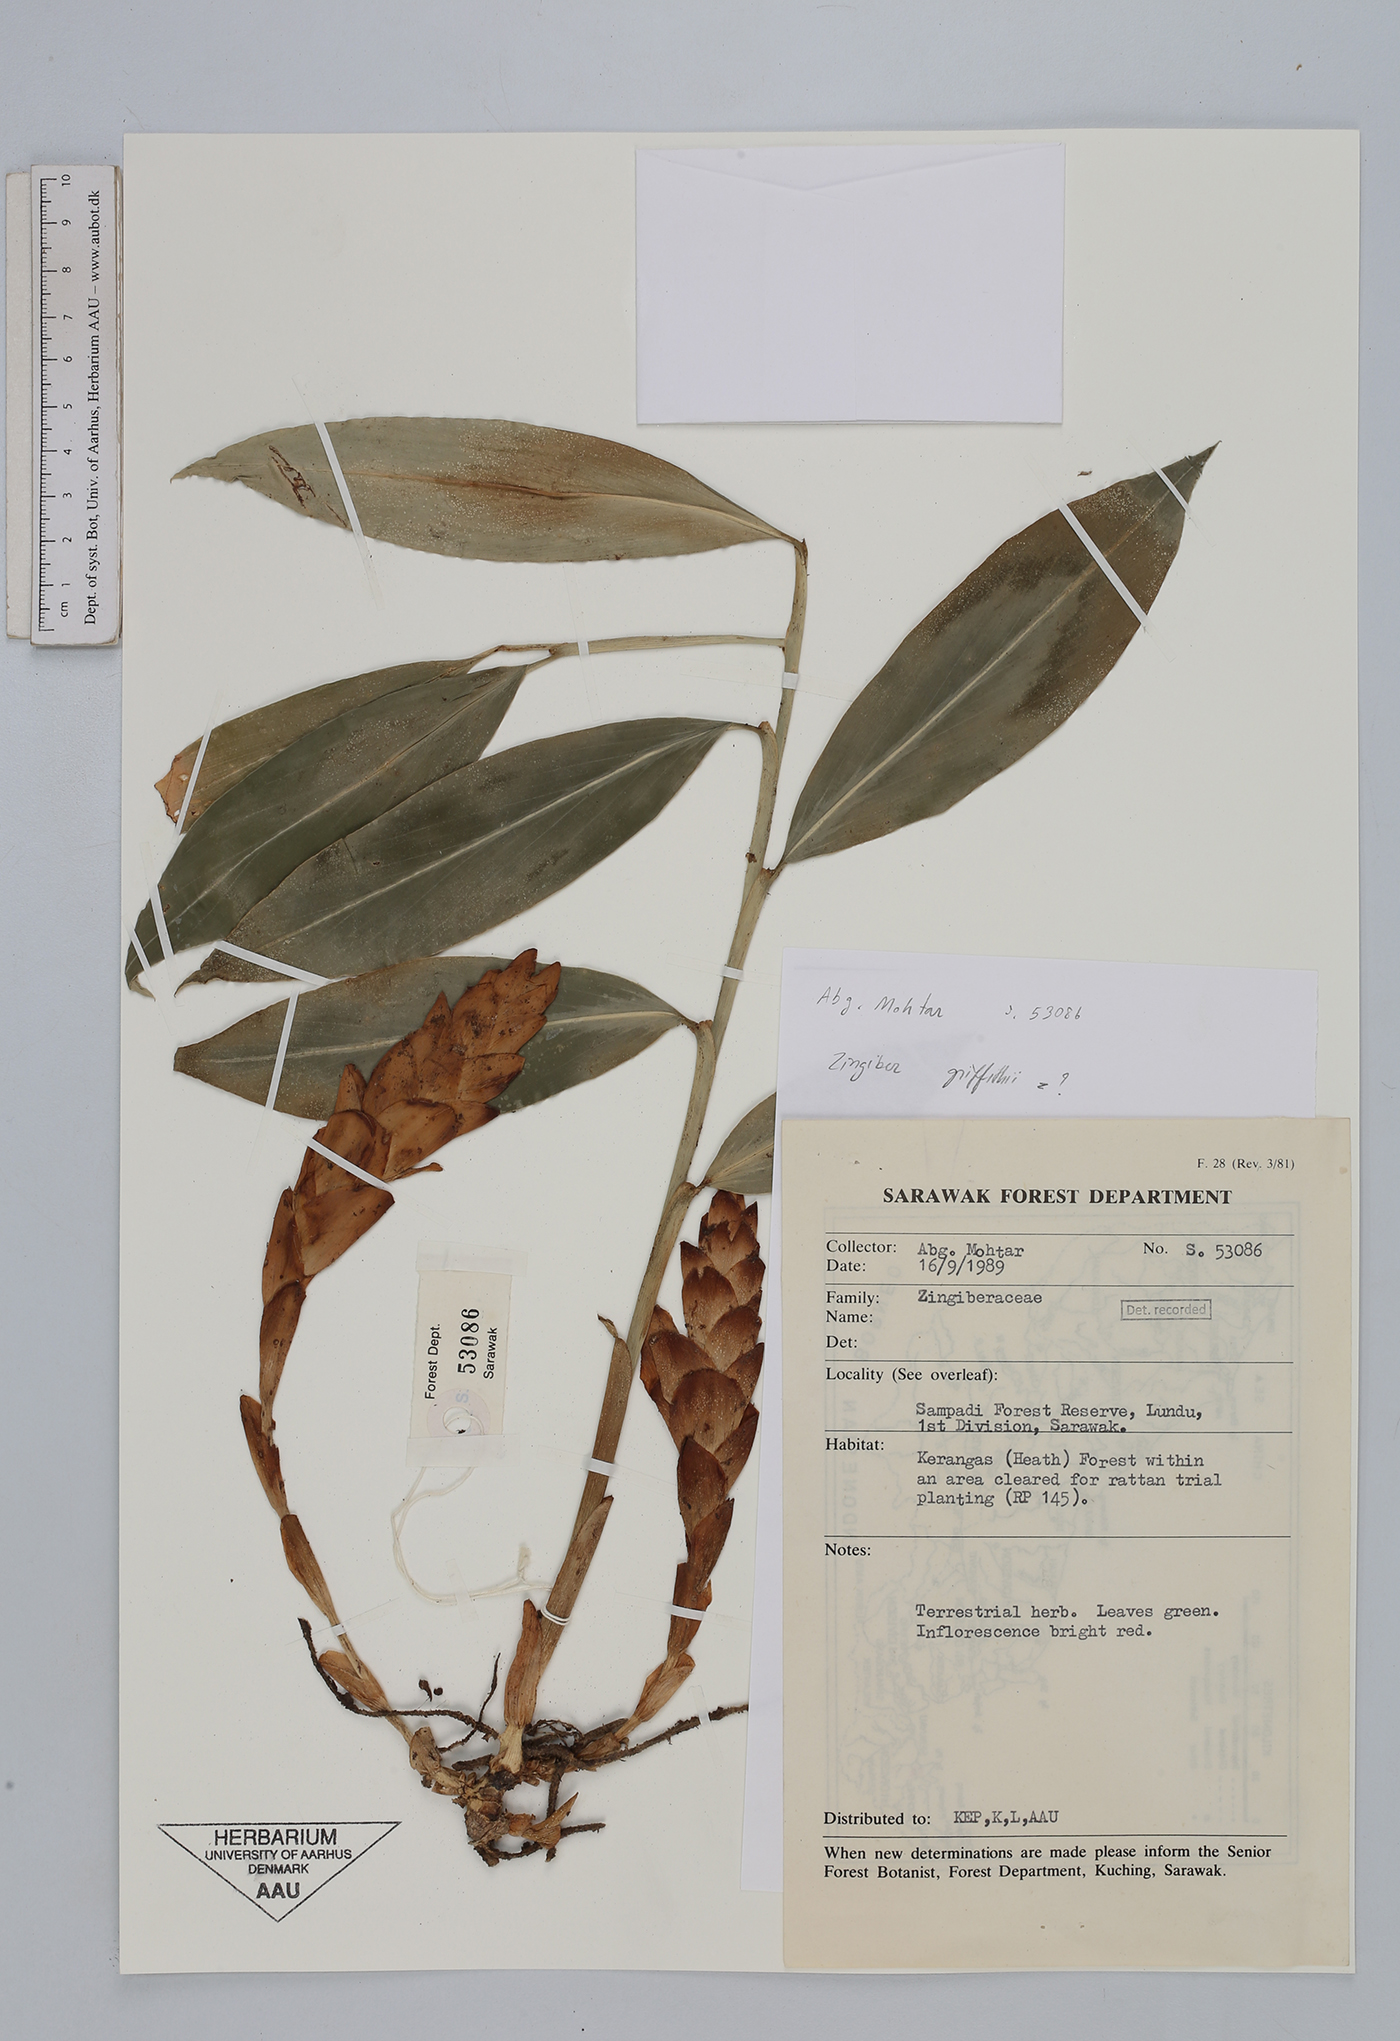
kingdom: Plantae
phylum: Tracheophyta
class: Liliopsida
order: Zingiberales
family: Zingiberaceae
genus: Zingiber
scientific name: Zingiber griffithii
